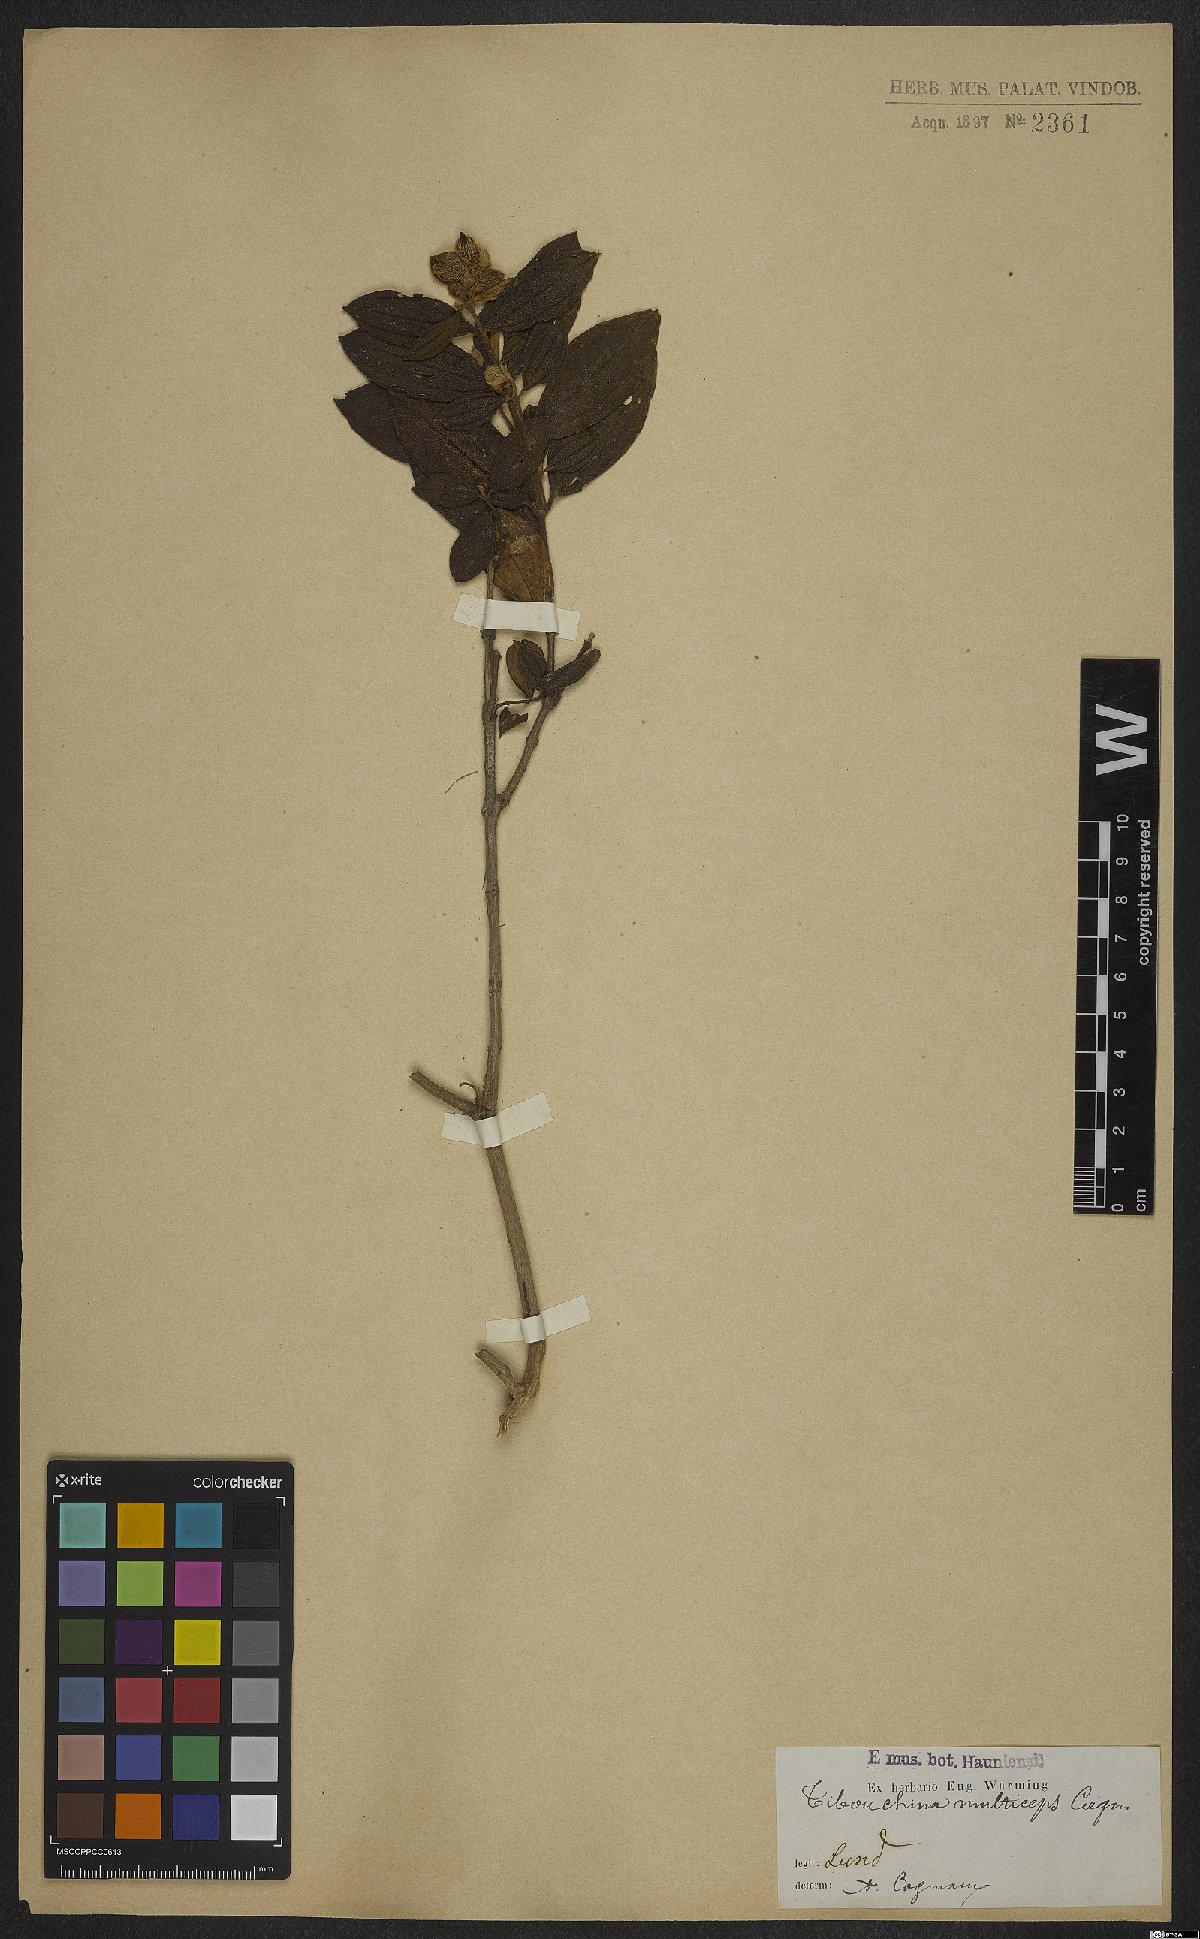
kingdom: Plantae
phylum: Tracheophyta
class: Magnoliopsida
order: Myrtales
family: Melastomataceae
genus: Pleroma
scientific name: Pleroma trichopodum
